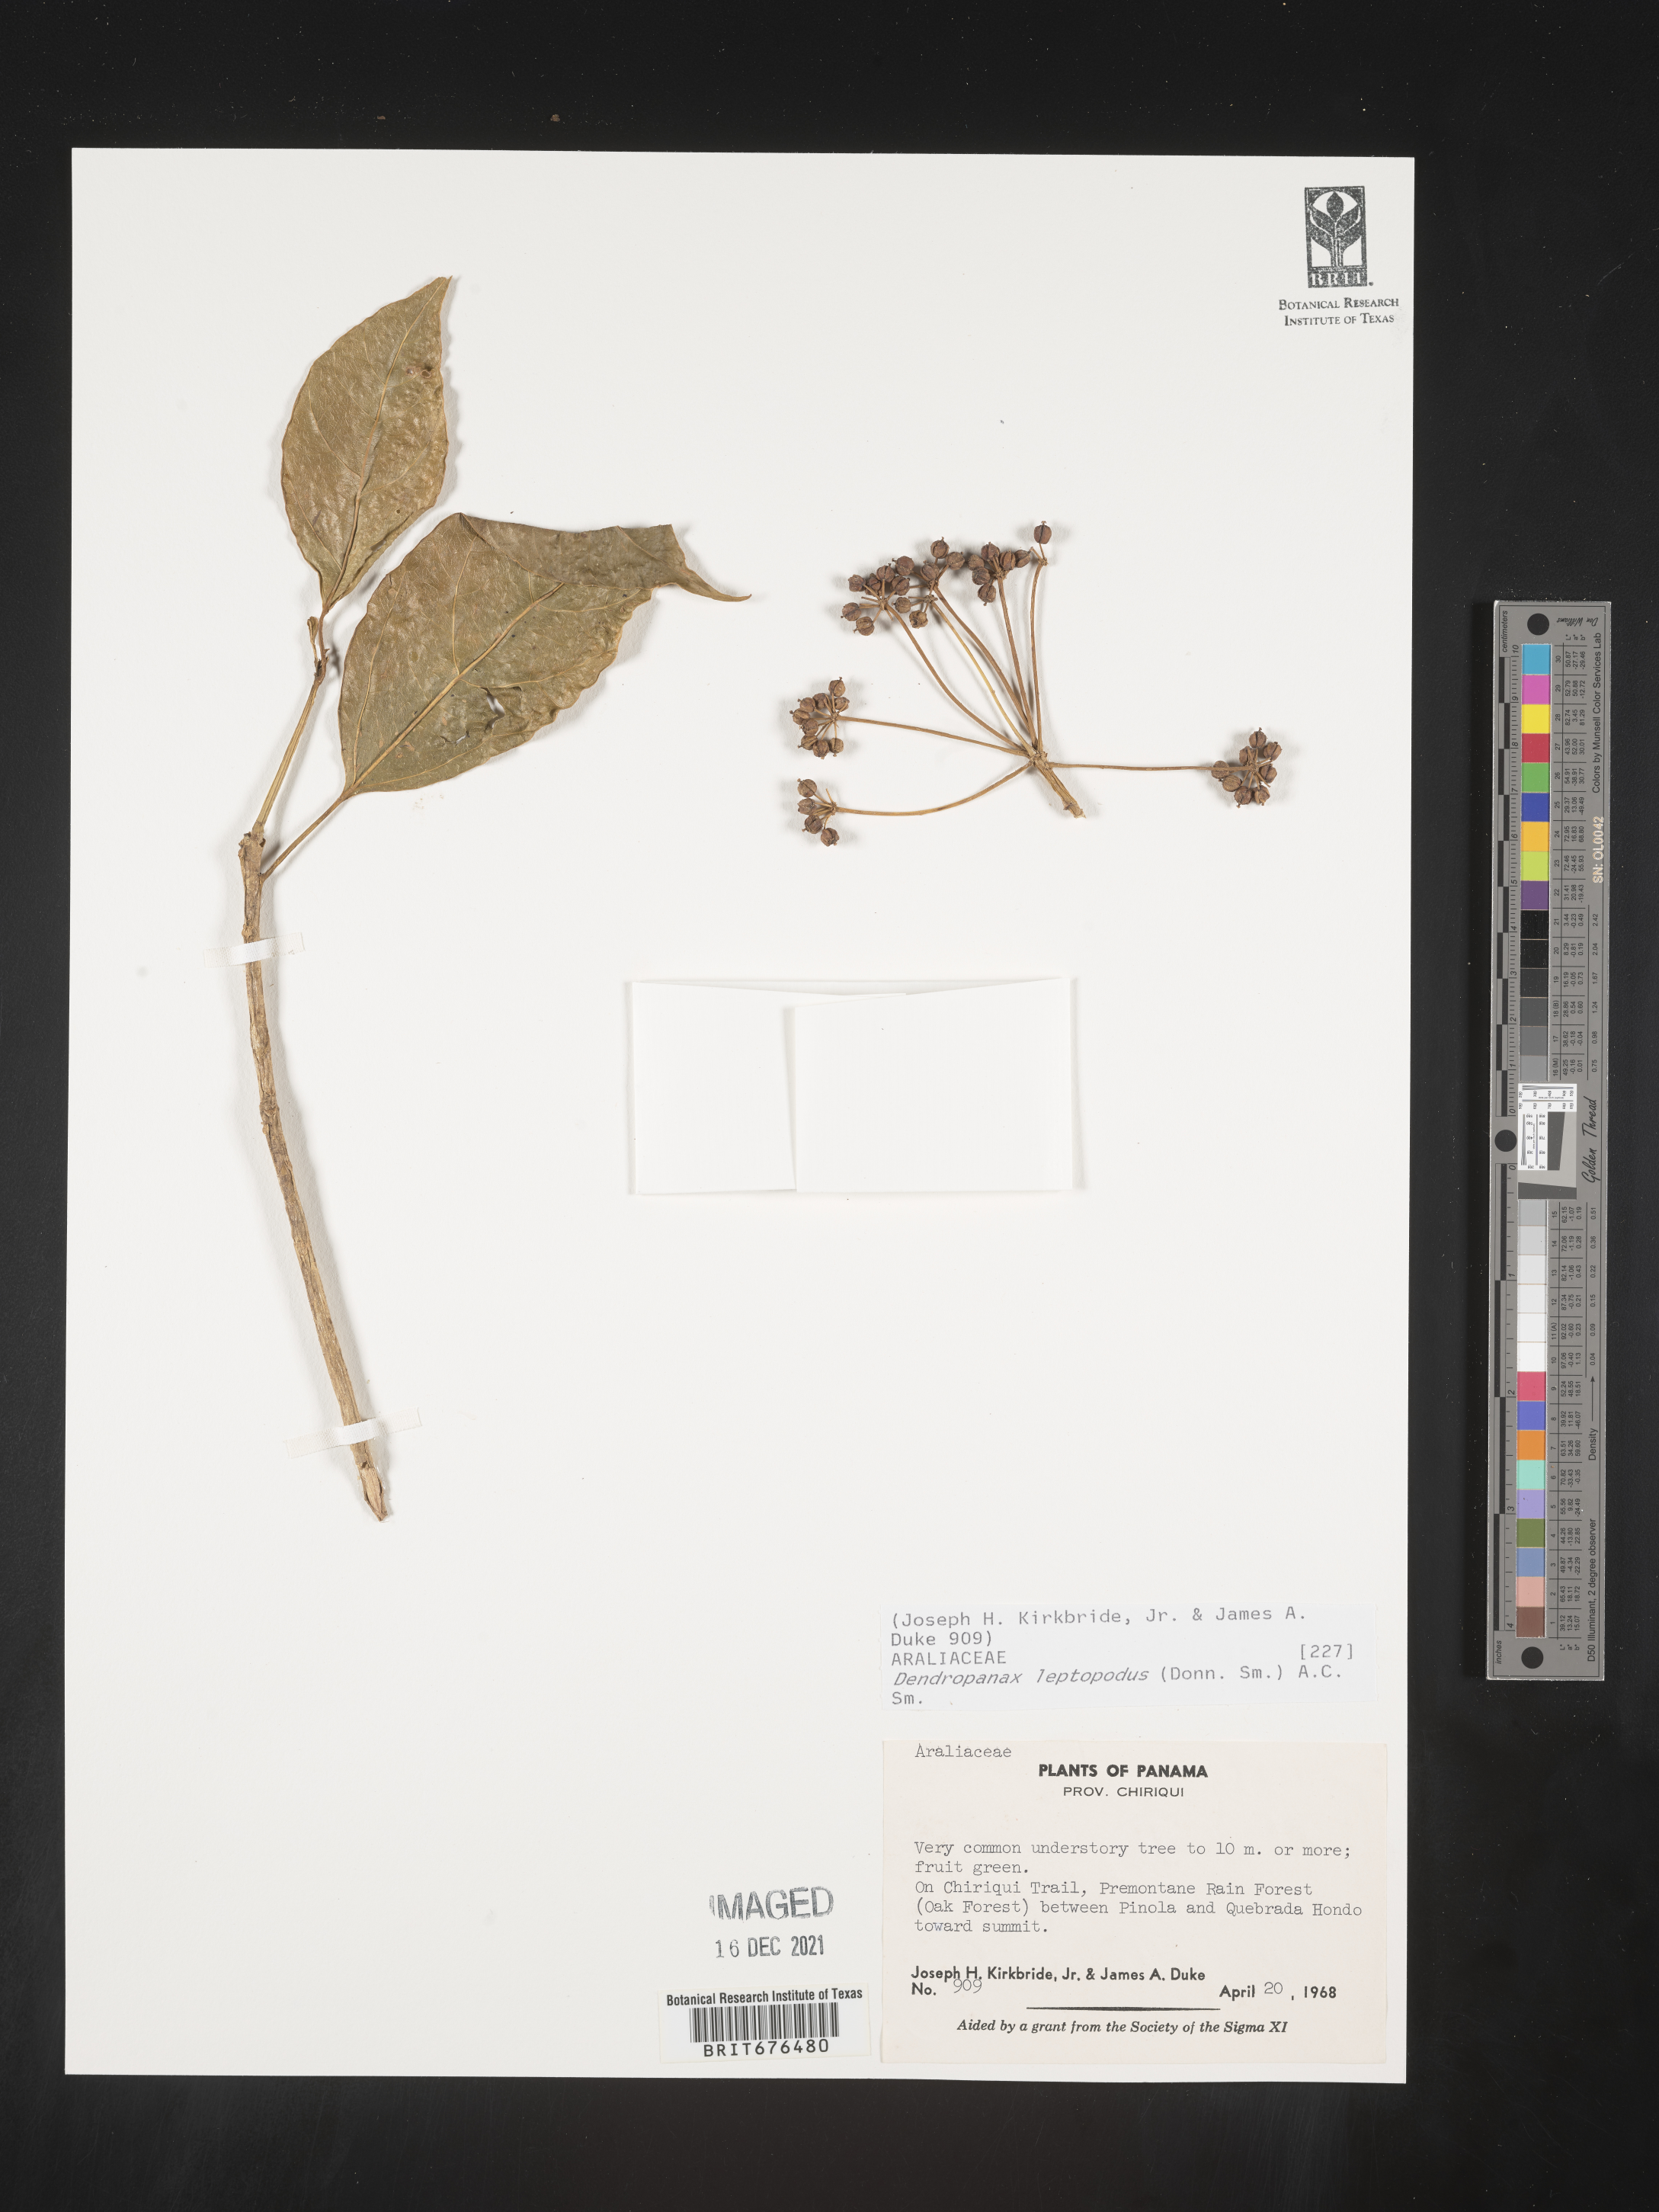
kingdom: Plantae
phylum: Tracheophyta
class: Magnoliopsida
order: Apiales
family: Araliaceae
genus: Dendropanax
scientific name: Dendropanax
